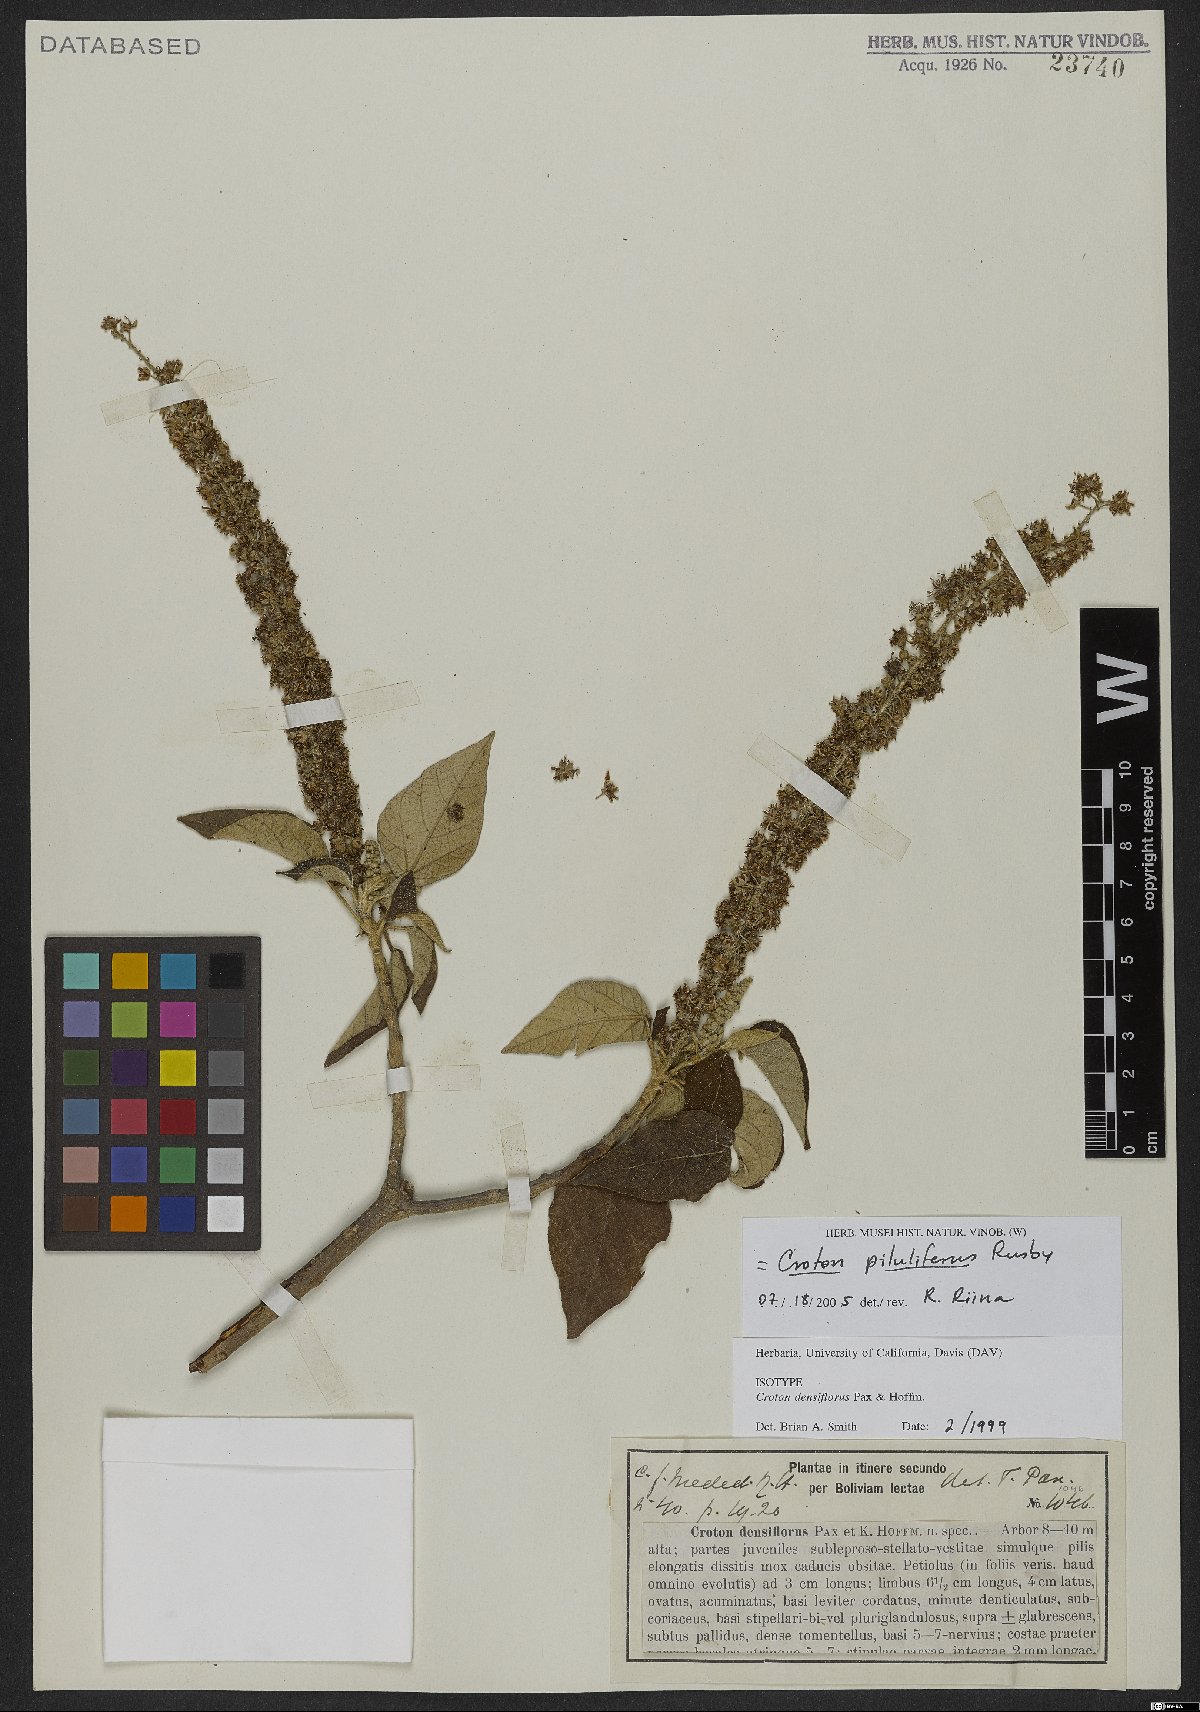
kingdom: Plantae
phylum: Tracheophyta
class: Magnoliopsida
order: Malpighiales
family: Euphorbiaceae
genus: Croton
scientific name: Croton piluliferus
